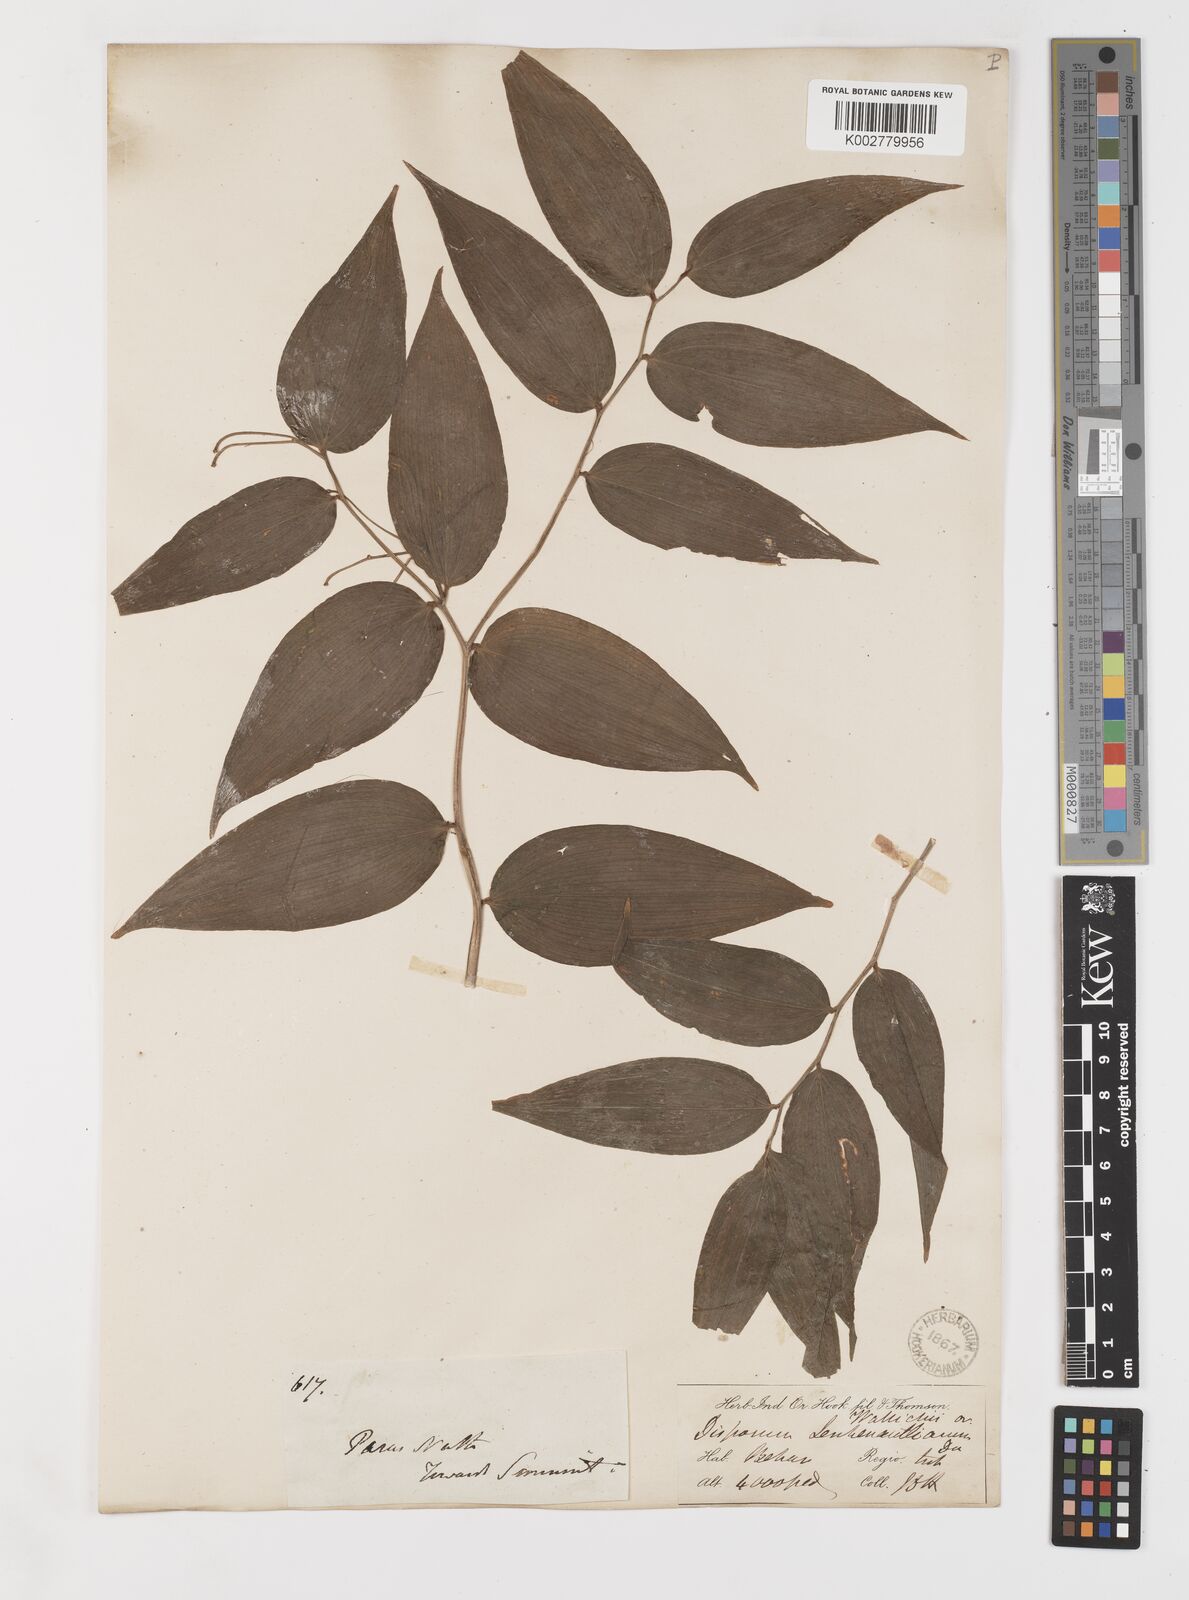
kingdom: Plantae
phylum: Tracheophyta
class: Liliopsida
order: Liliales
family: Colchicaceae
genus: Disporum
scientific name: Disporum cantoniense
